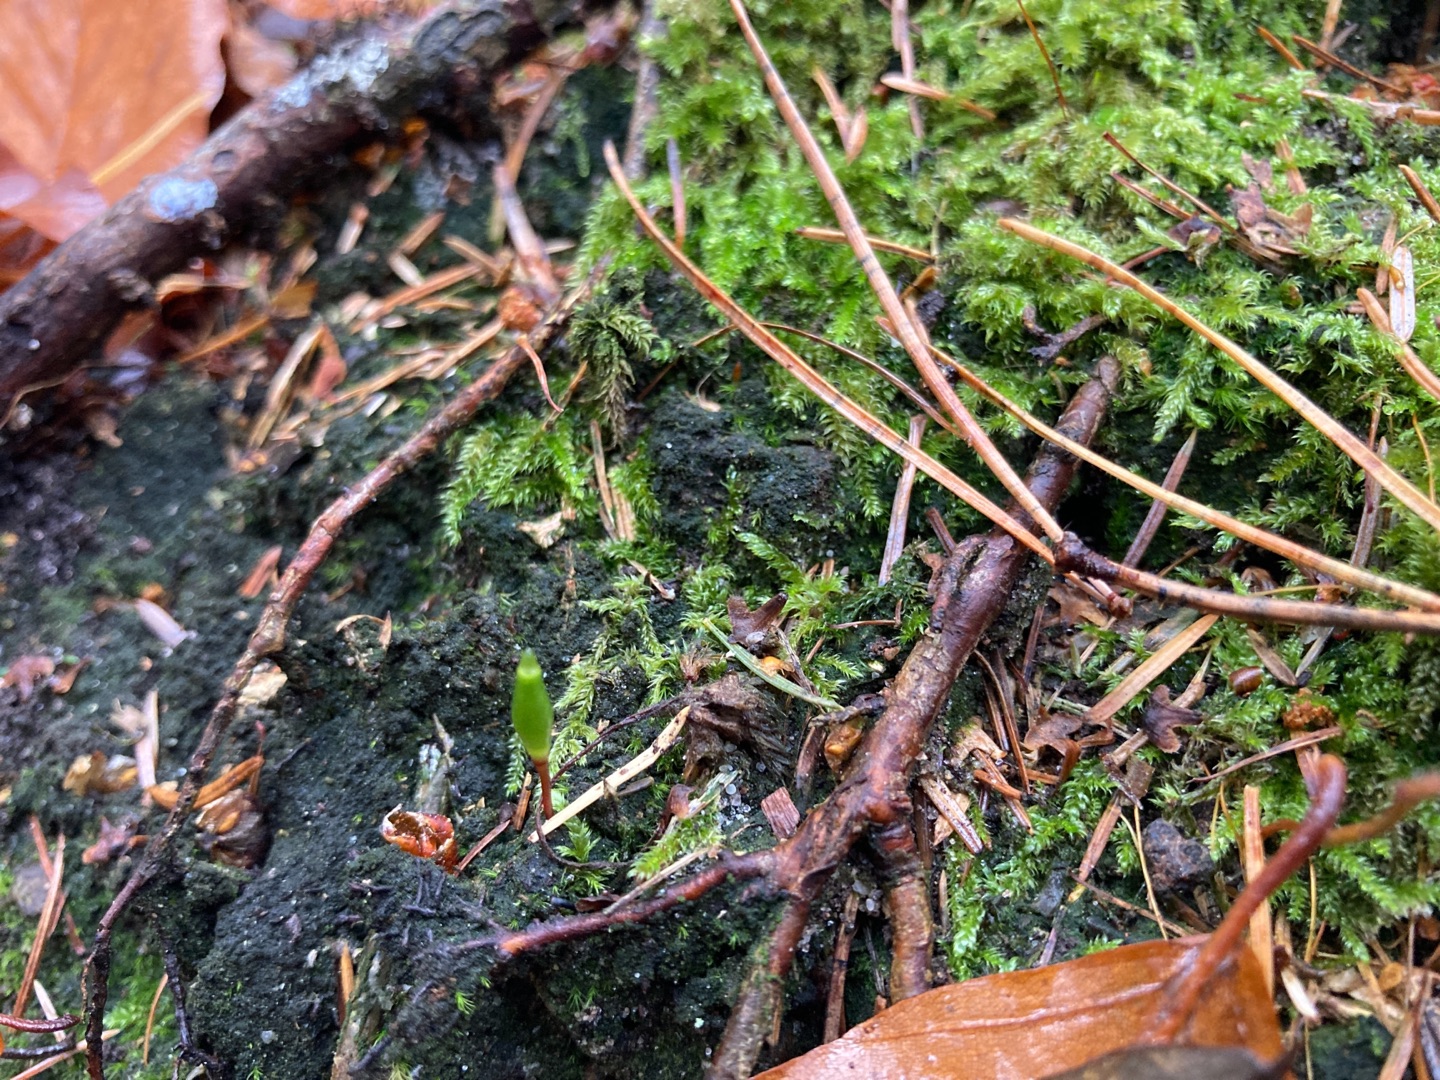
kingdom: Plantae
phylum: Bryophyta
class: Bryopsida
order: Buxbaumiales
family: Buxbaumiaceae
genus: Buxbaumia
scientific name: Buxbaumia viridis
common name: Grøn buxbaumia
